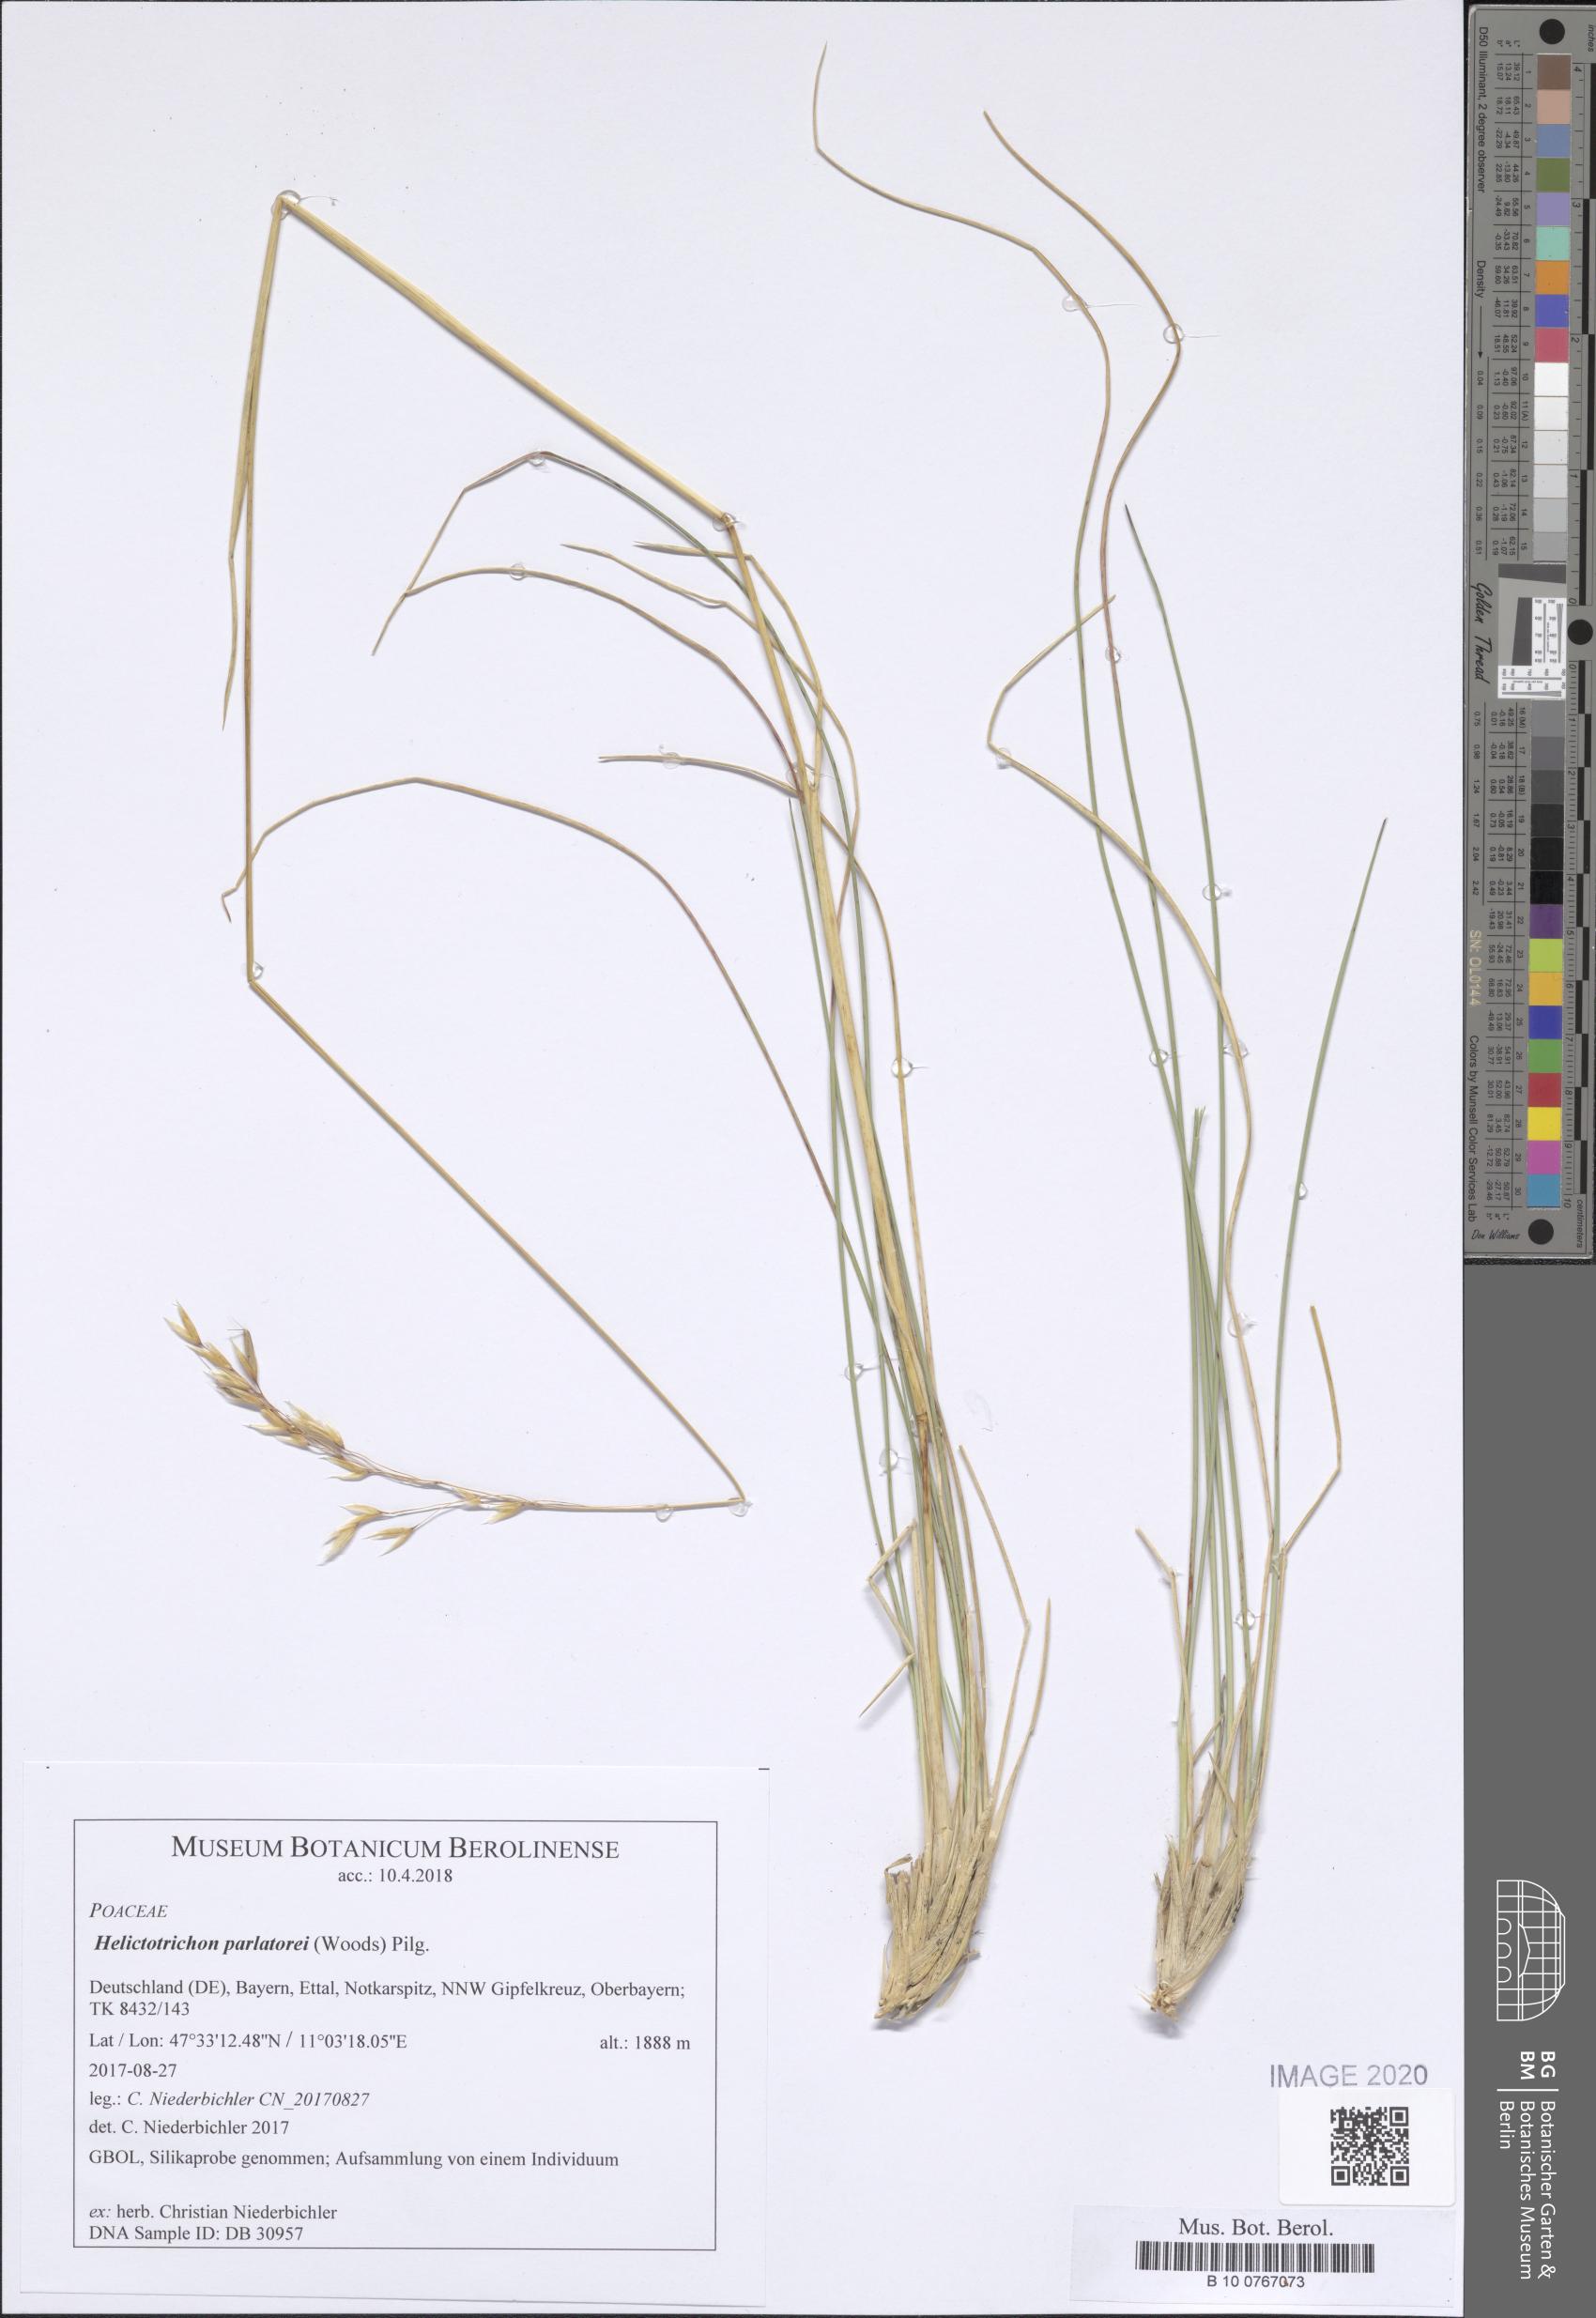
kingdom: Plantae
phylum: Tracheophyta
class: Liliopsida
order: Poales
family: Poaceae
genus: Helictotrichon
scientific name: Helictotrichon parlatorei
